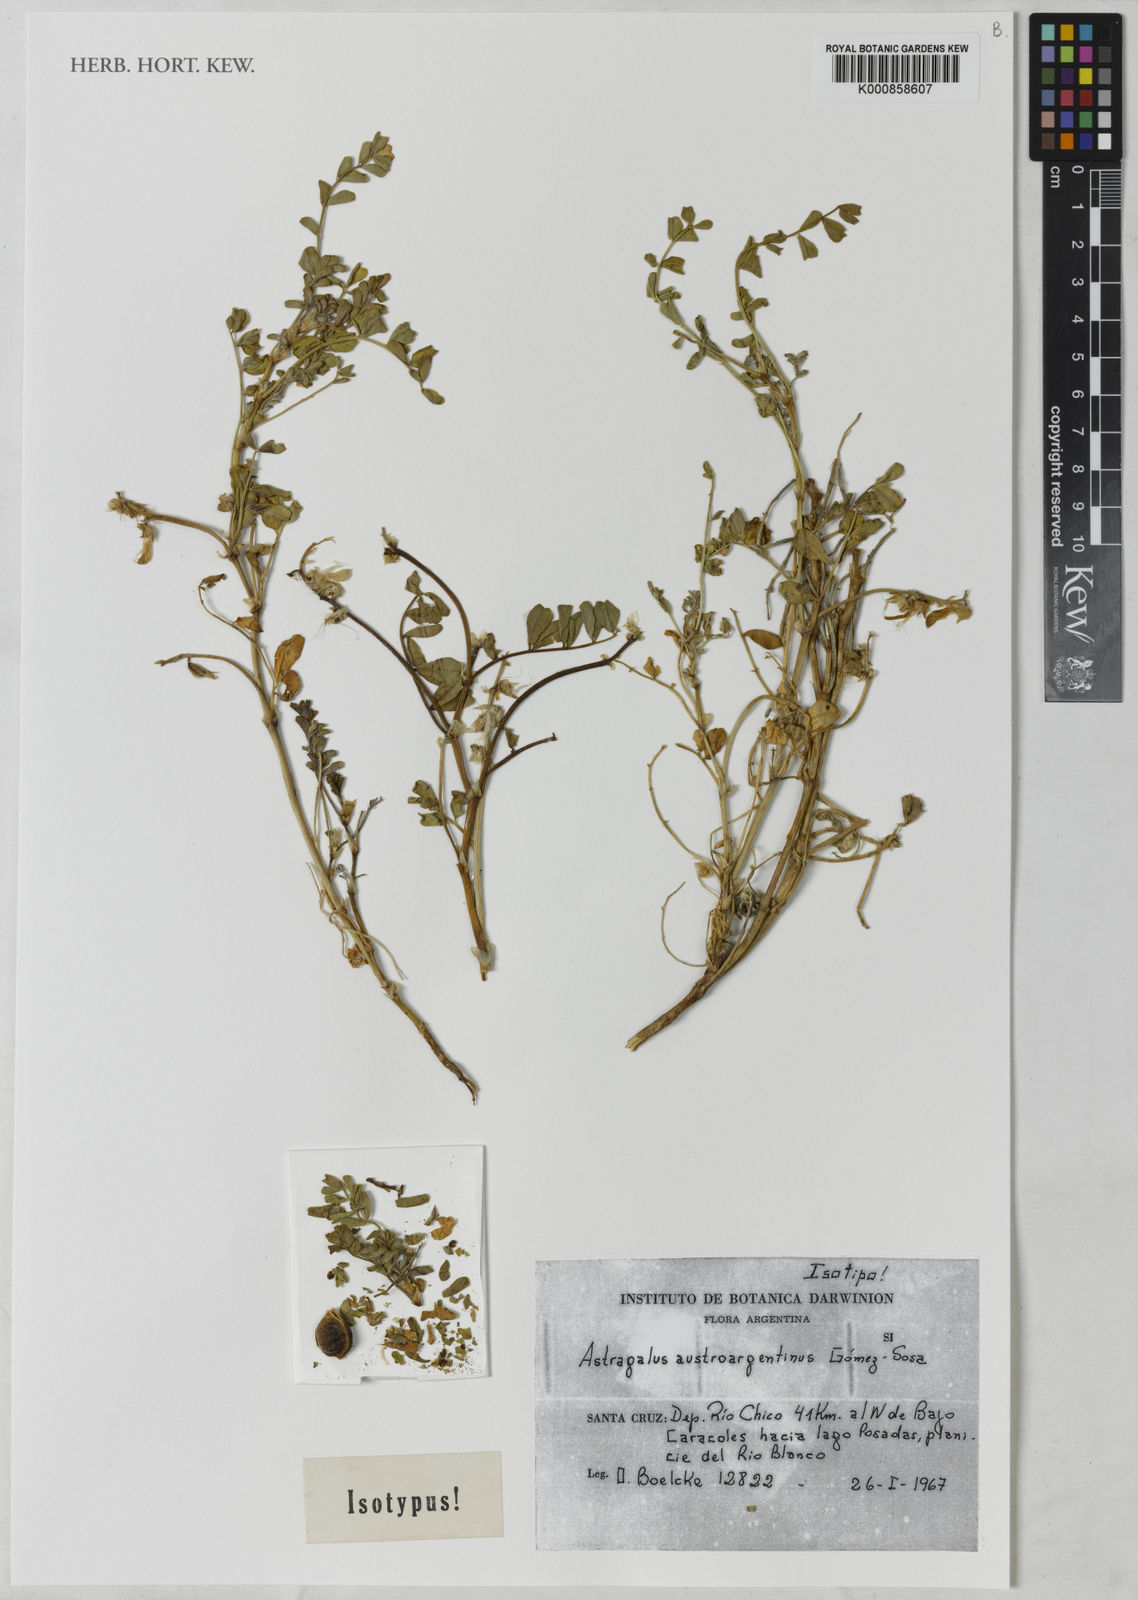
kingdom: Plantae
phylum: Tracheophyta
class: Magnoliopsida
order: Fabales
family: Fabaceae
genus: Astragalus
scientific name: Astragalus
